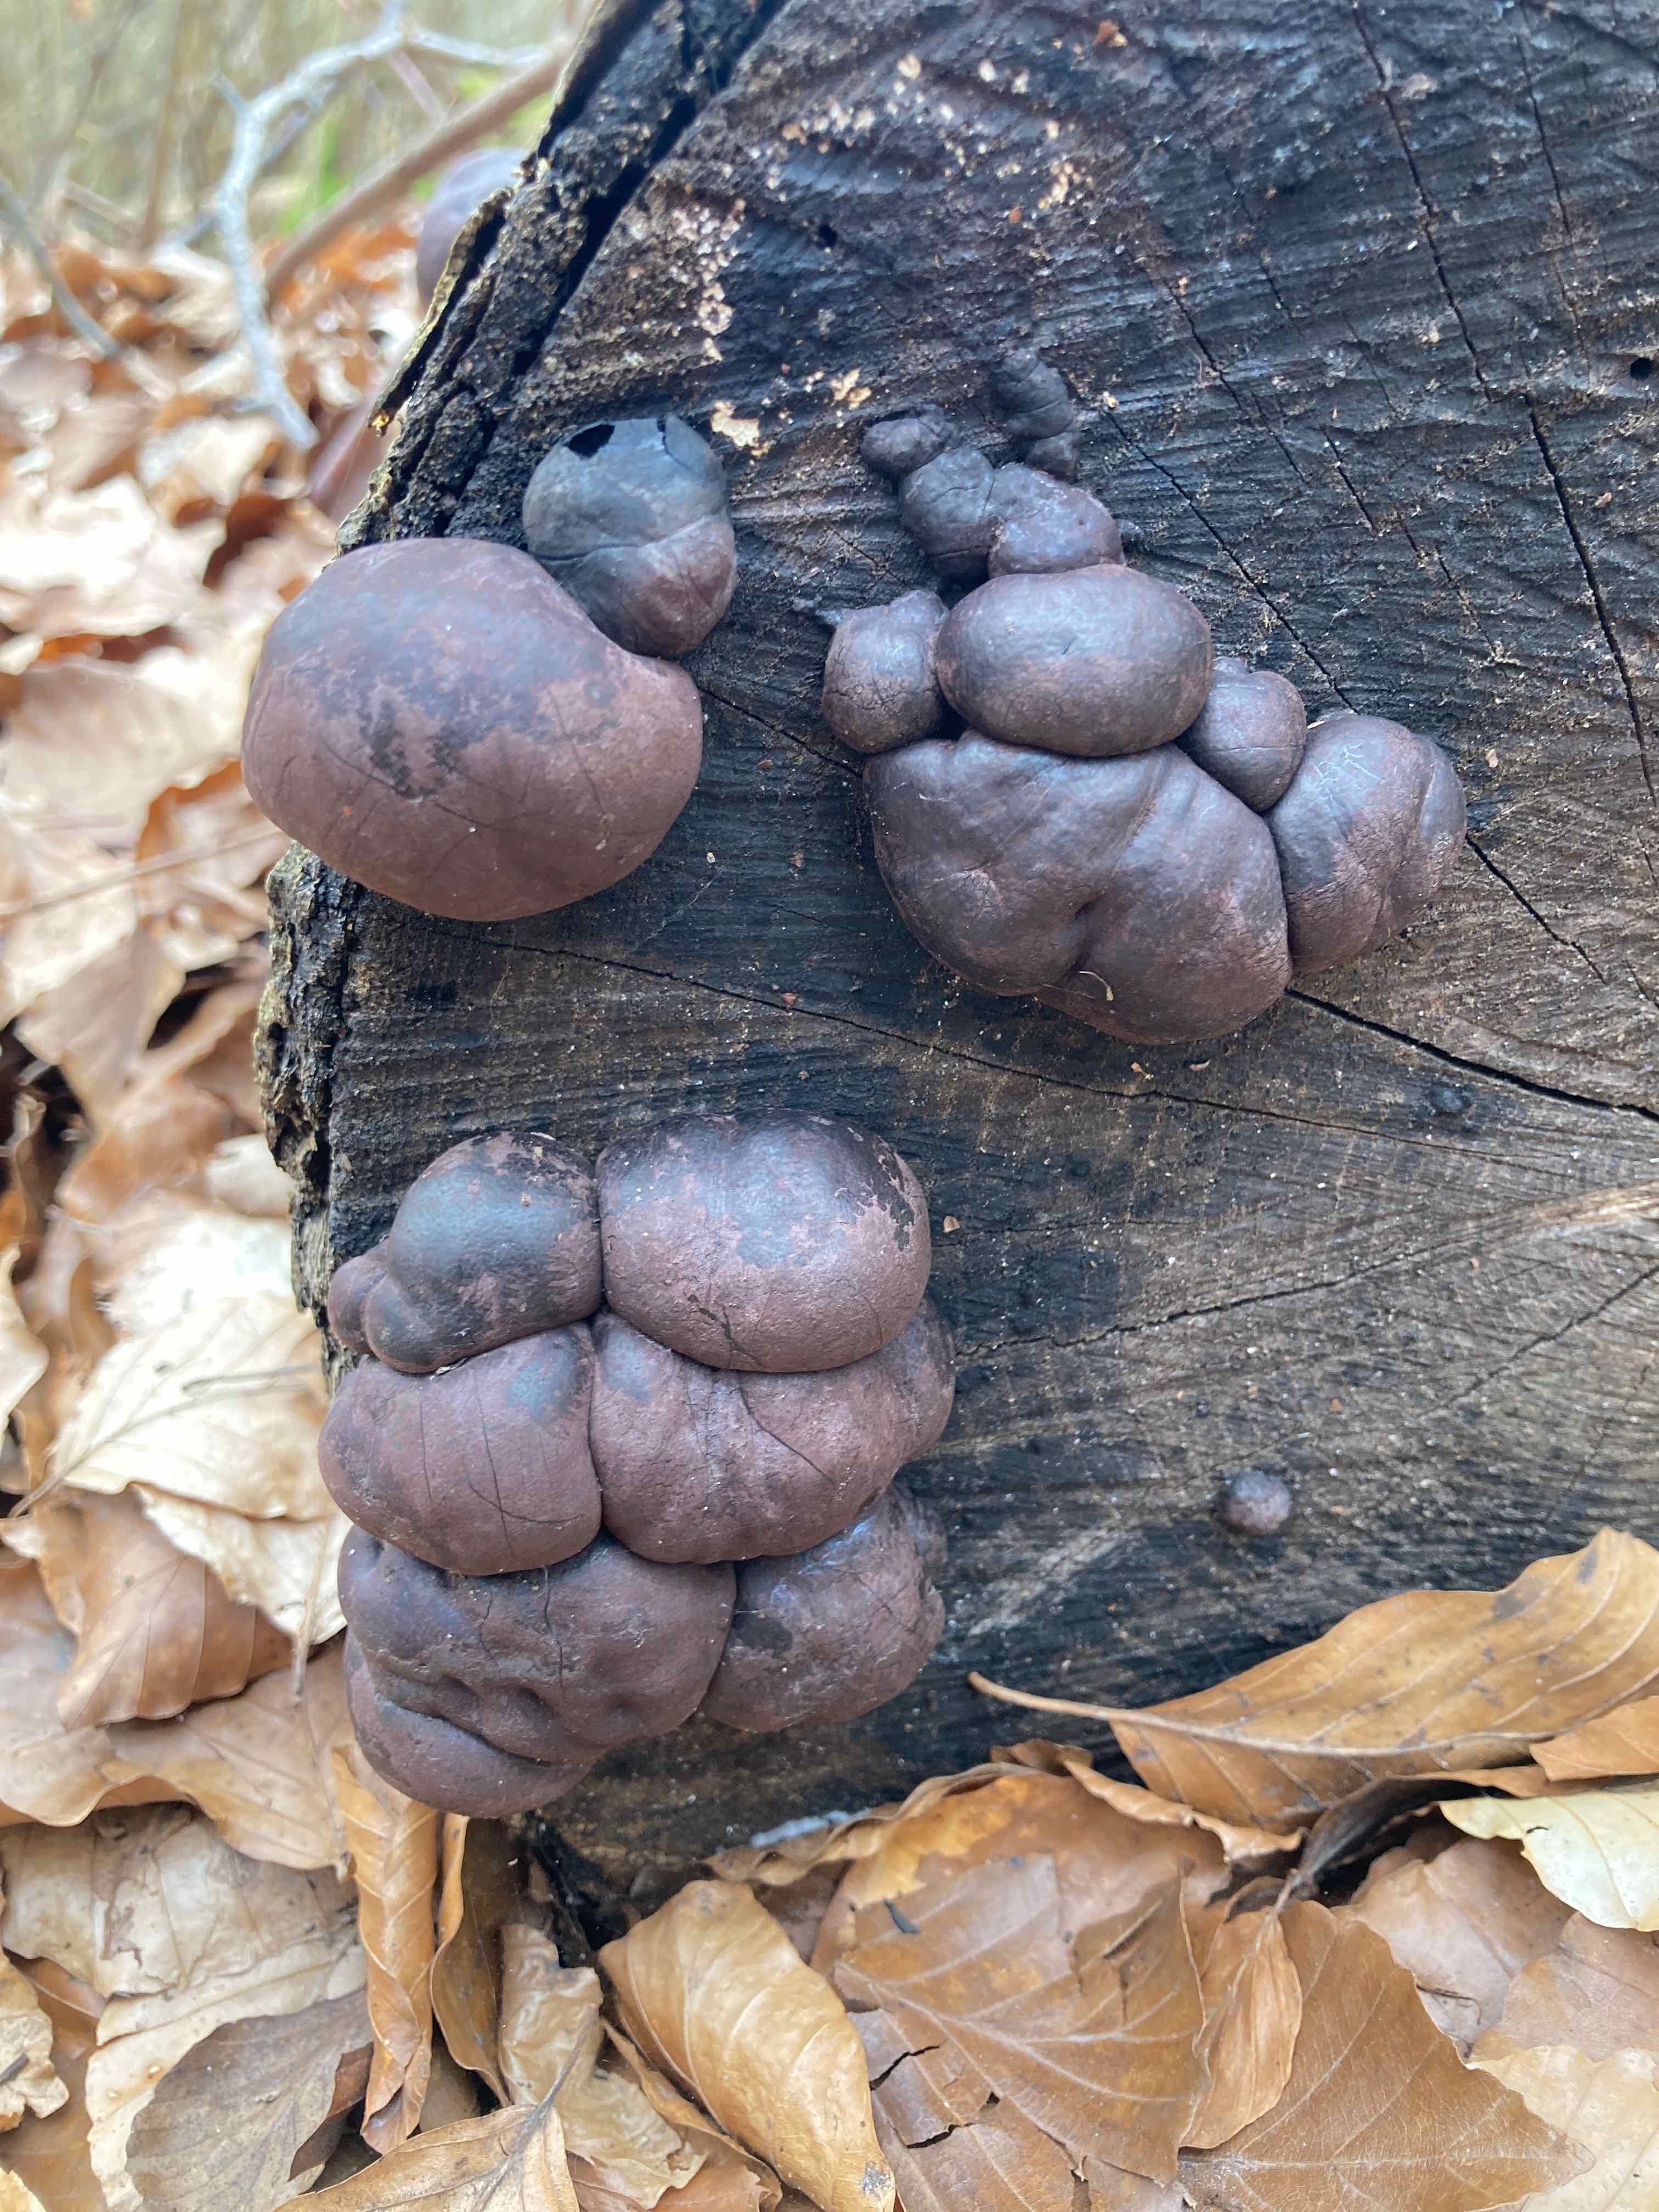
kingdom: Fungi
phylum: Ascomycota
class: Sordariomycetes
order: Xylariales
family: Hypoxylaceae
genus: Daldinia
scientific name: Daldinia concentrica
